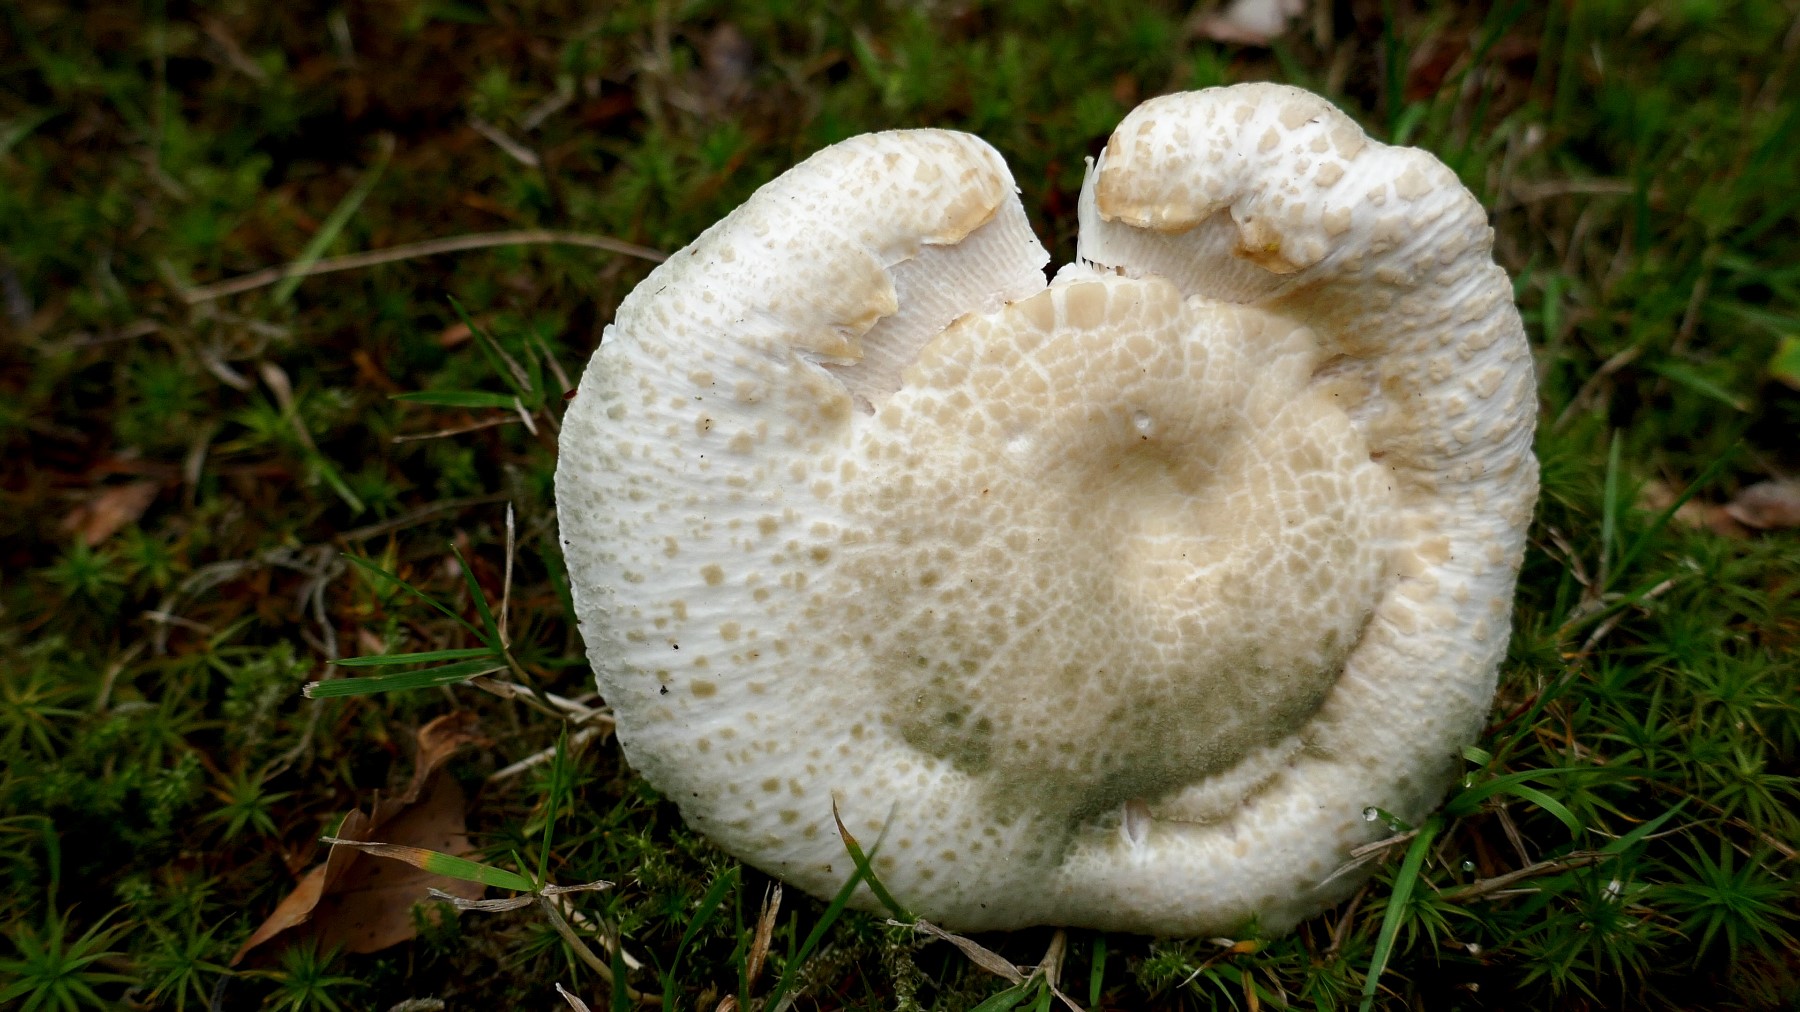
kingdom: Fungi
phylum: Basidiomycota
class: Agaricomycetes
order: Russulales
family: Russulaceae
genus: Russula
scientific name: Russula virescens
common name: spanskgrøn skørhat
